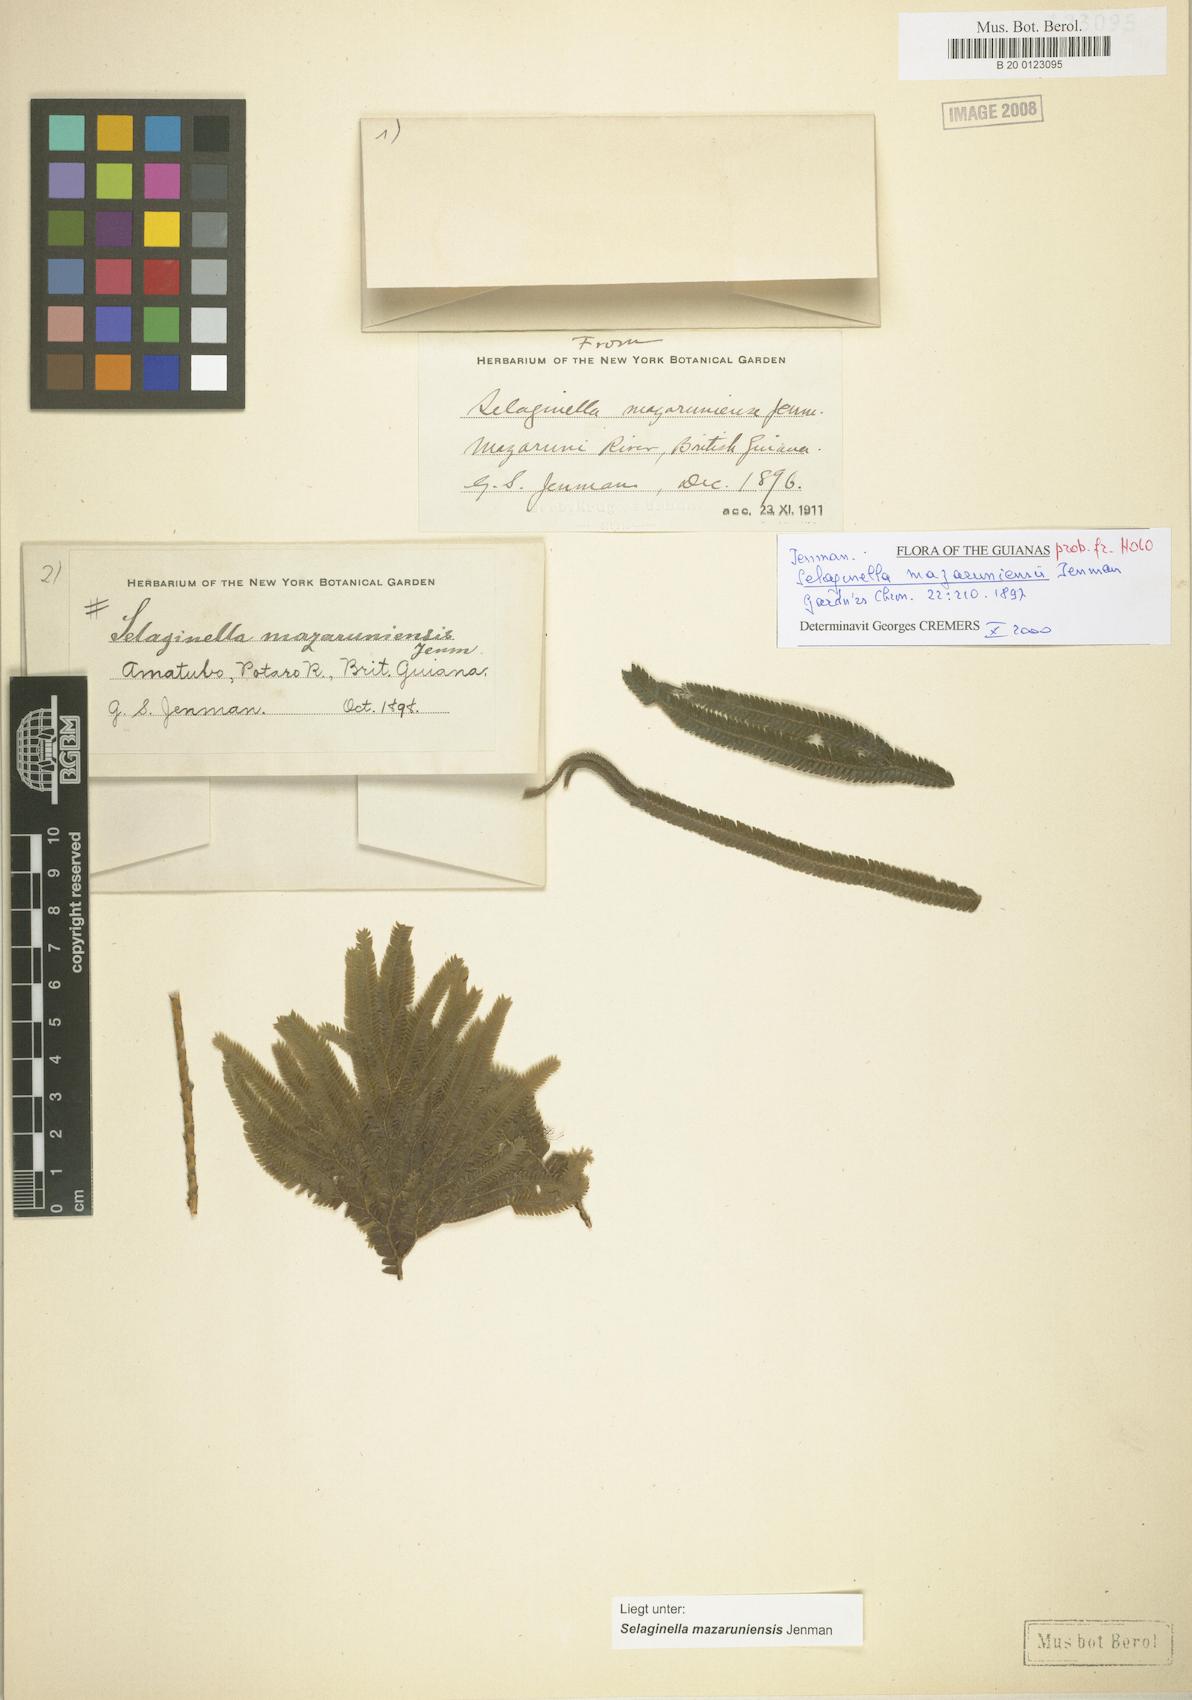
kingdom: Plantae
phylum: Tracheophyta
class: Lycopodiopsida
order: Selaginellales
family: Selaginellaceae
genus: Selaginella
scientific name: Selaginella mazaruniensis
